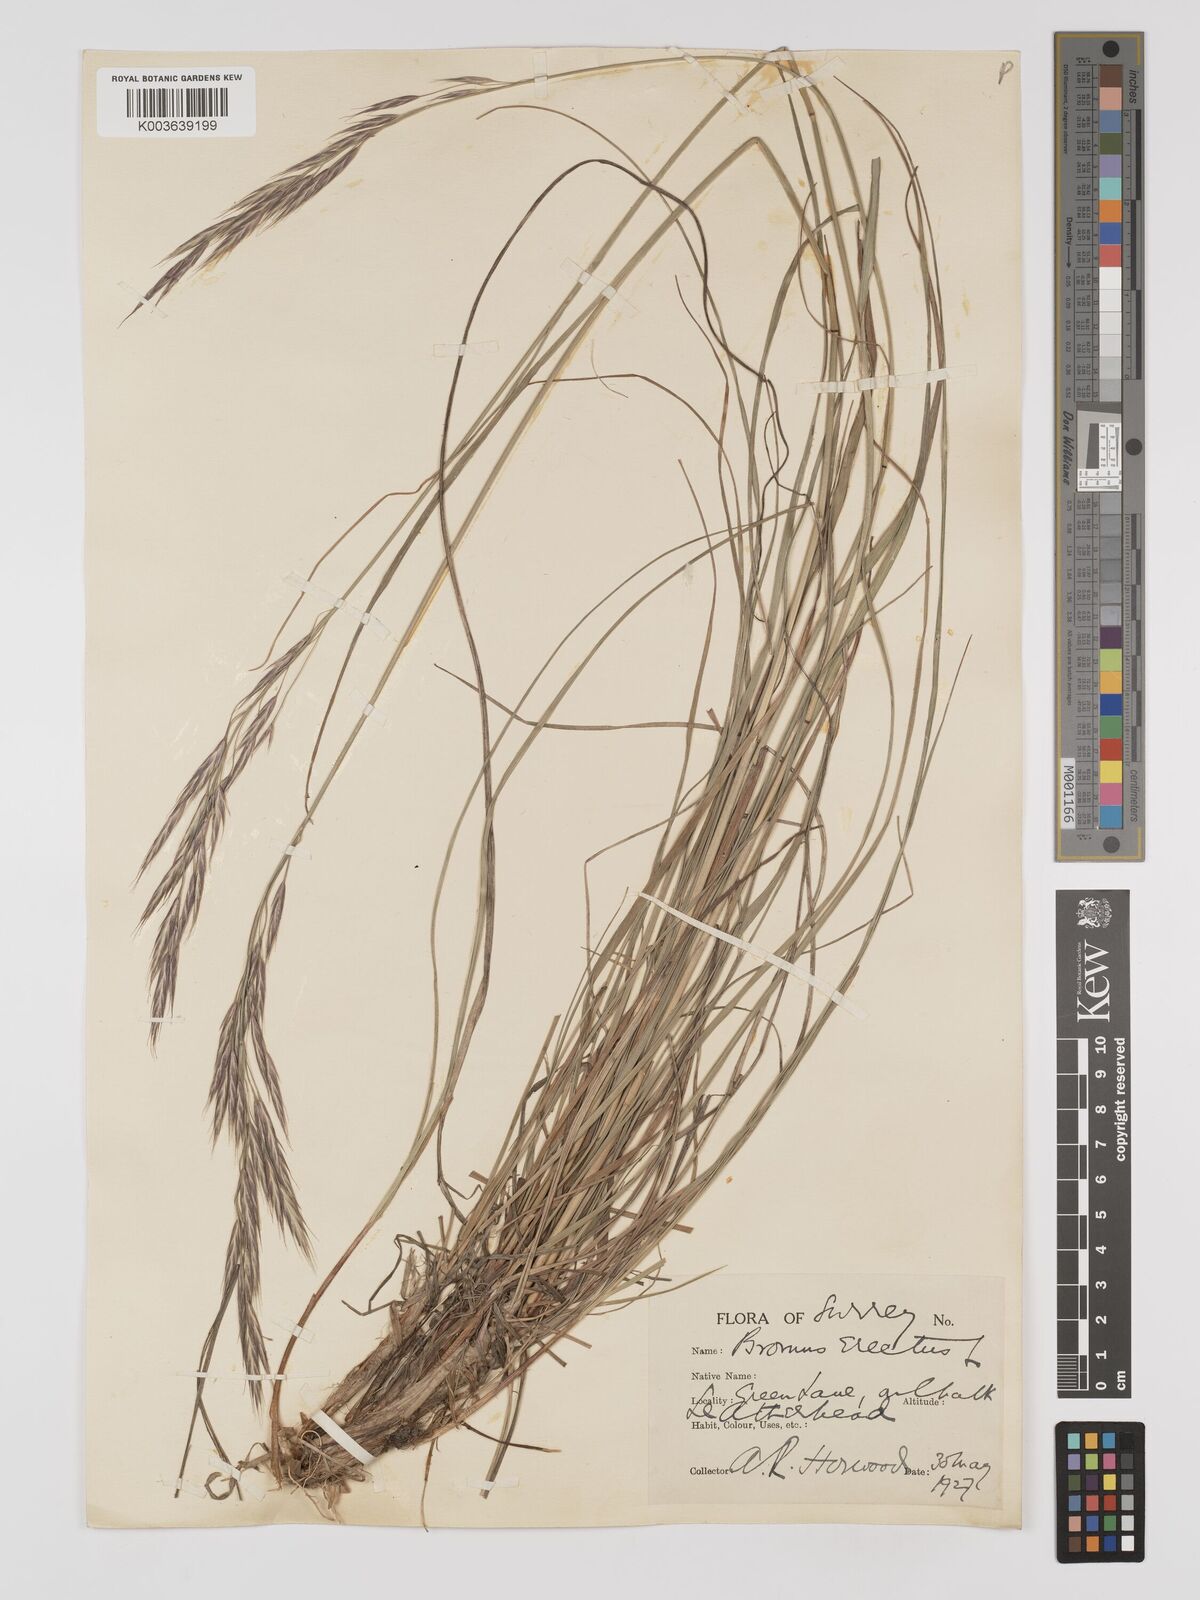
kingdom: Plantae
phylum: Tracheophyta
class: Liliopsida
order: Poales
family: Poaceae
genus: Bromus
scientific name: Bromus erectus
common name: Erect brome
